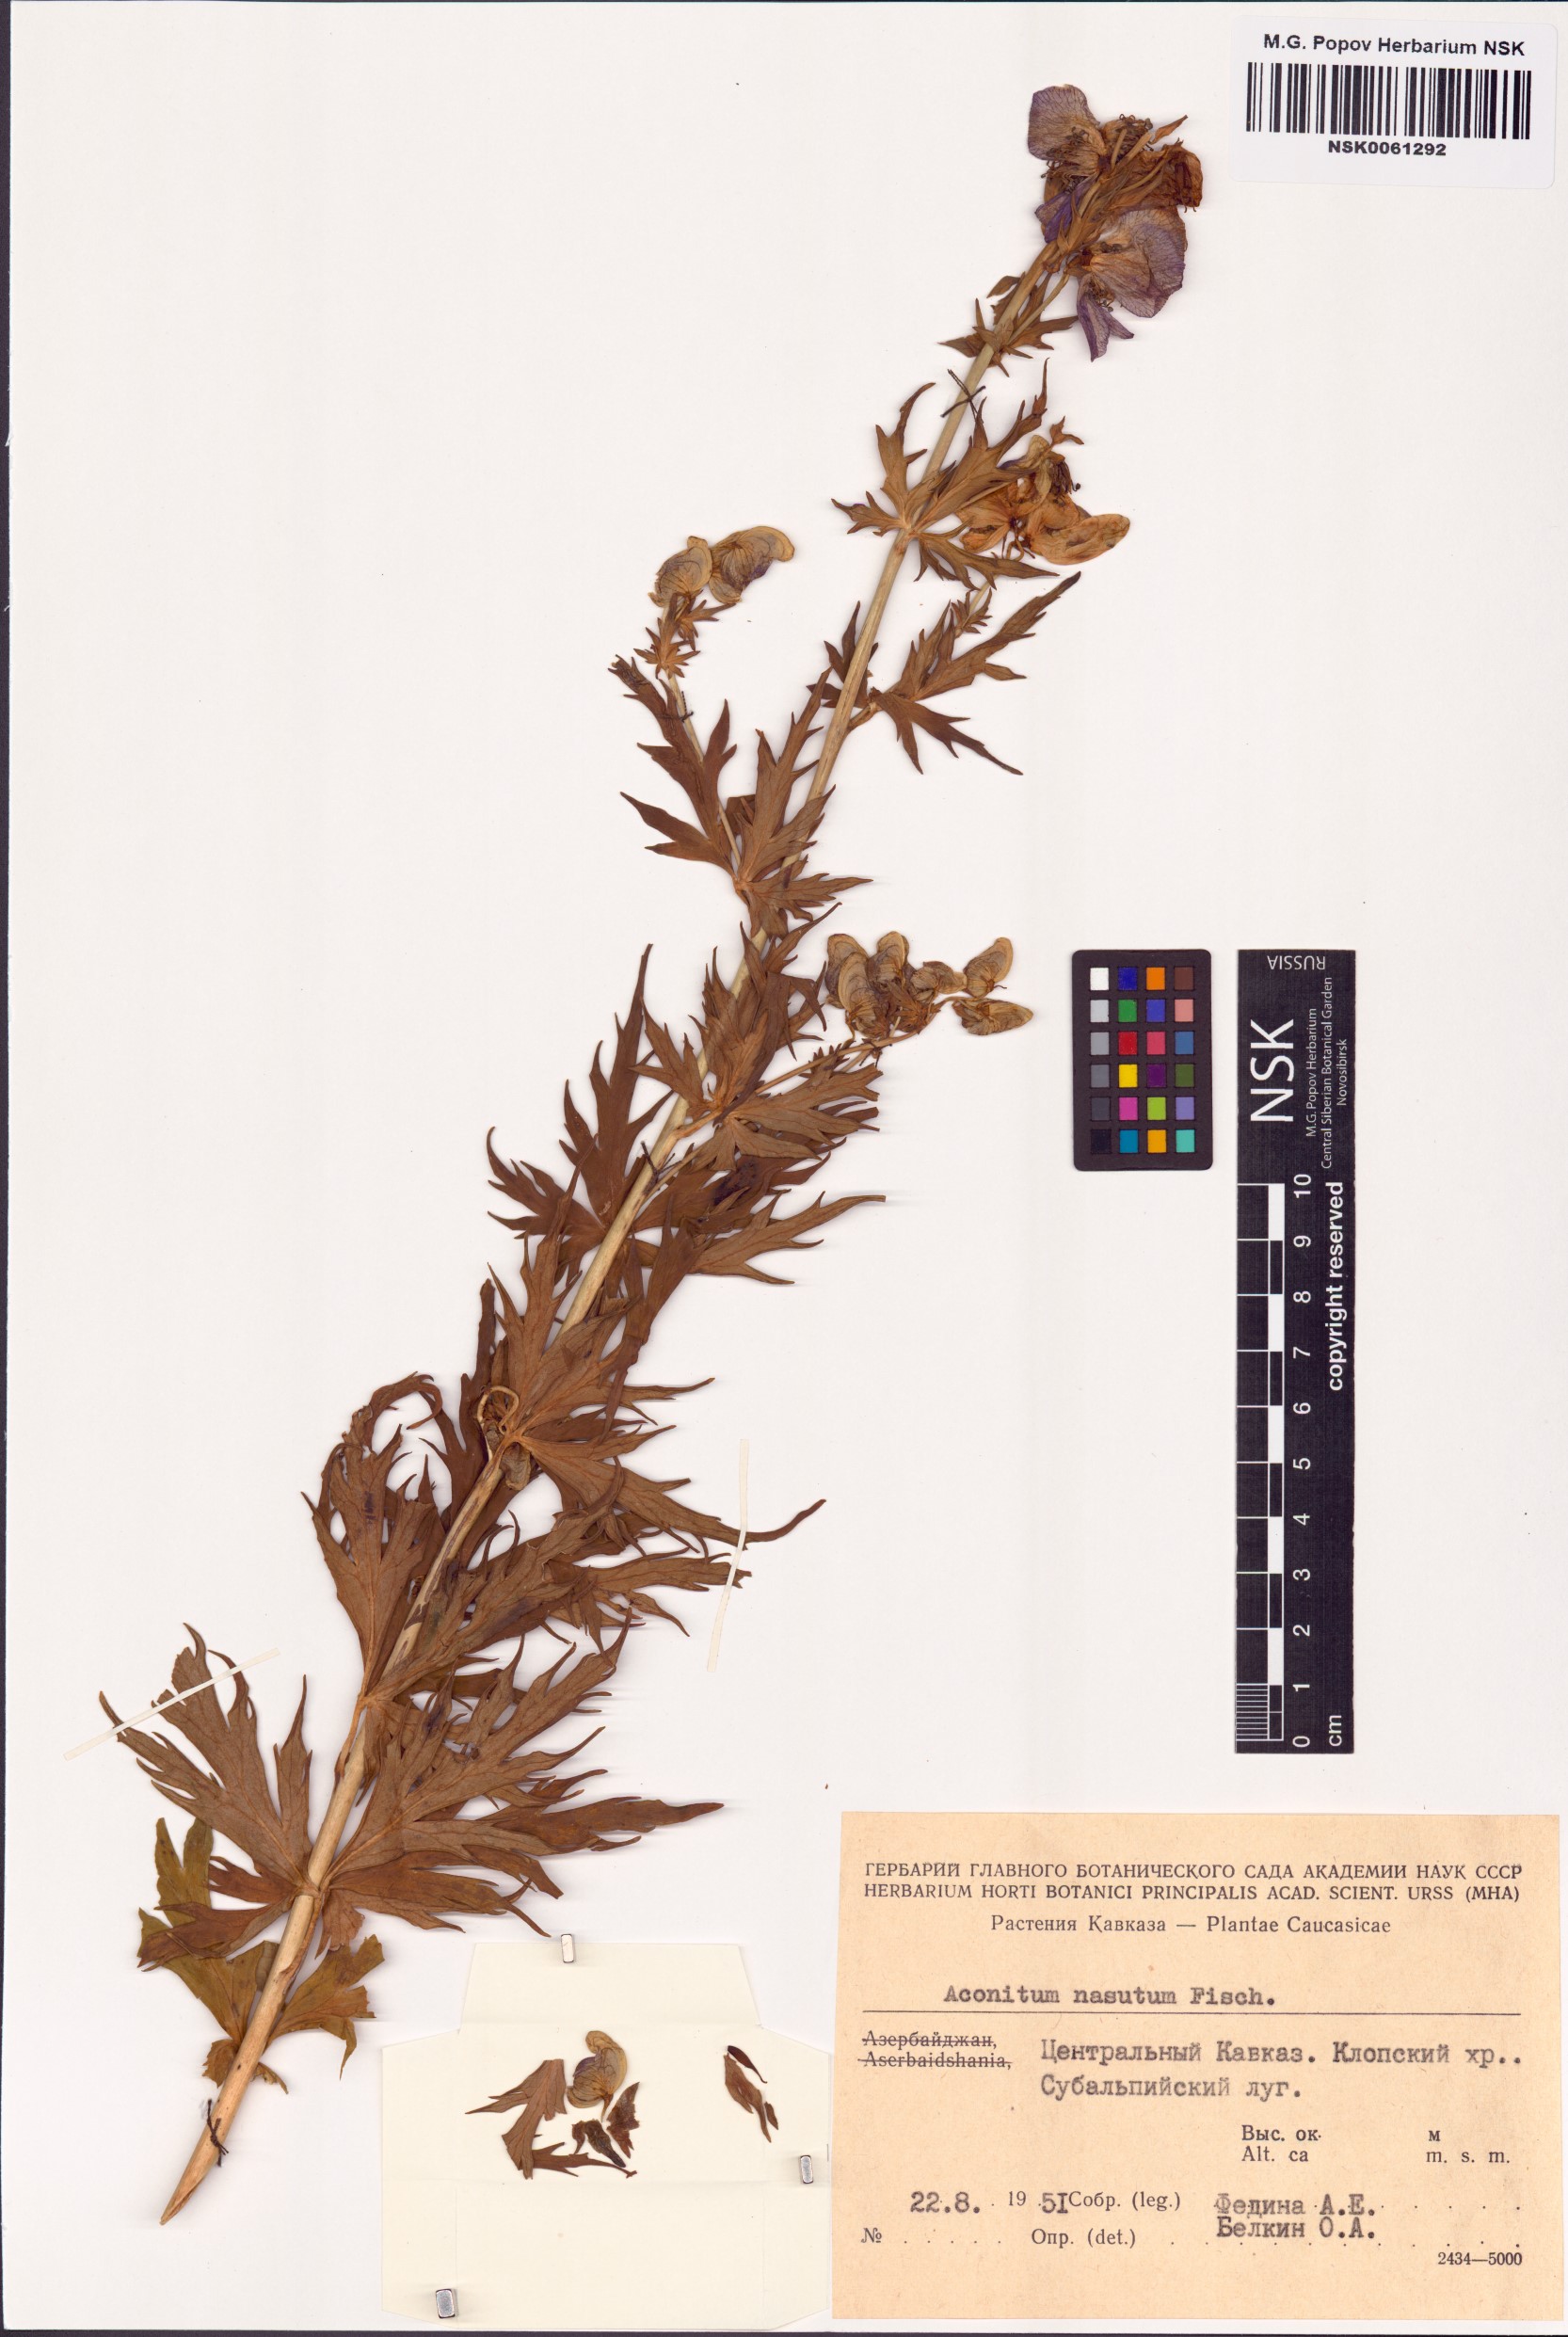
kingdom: Plantae
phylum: Tracheophyta
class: Magnoliopsida
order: Ranunculales
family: Ranunculaceae
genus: Aconitum
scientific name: Aconitum variegatum
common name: Manchurian monkshood
